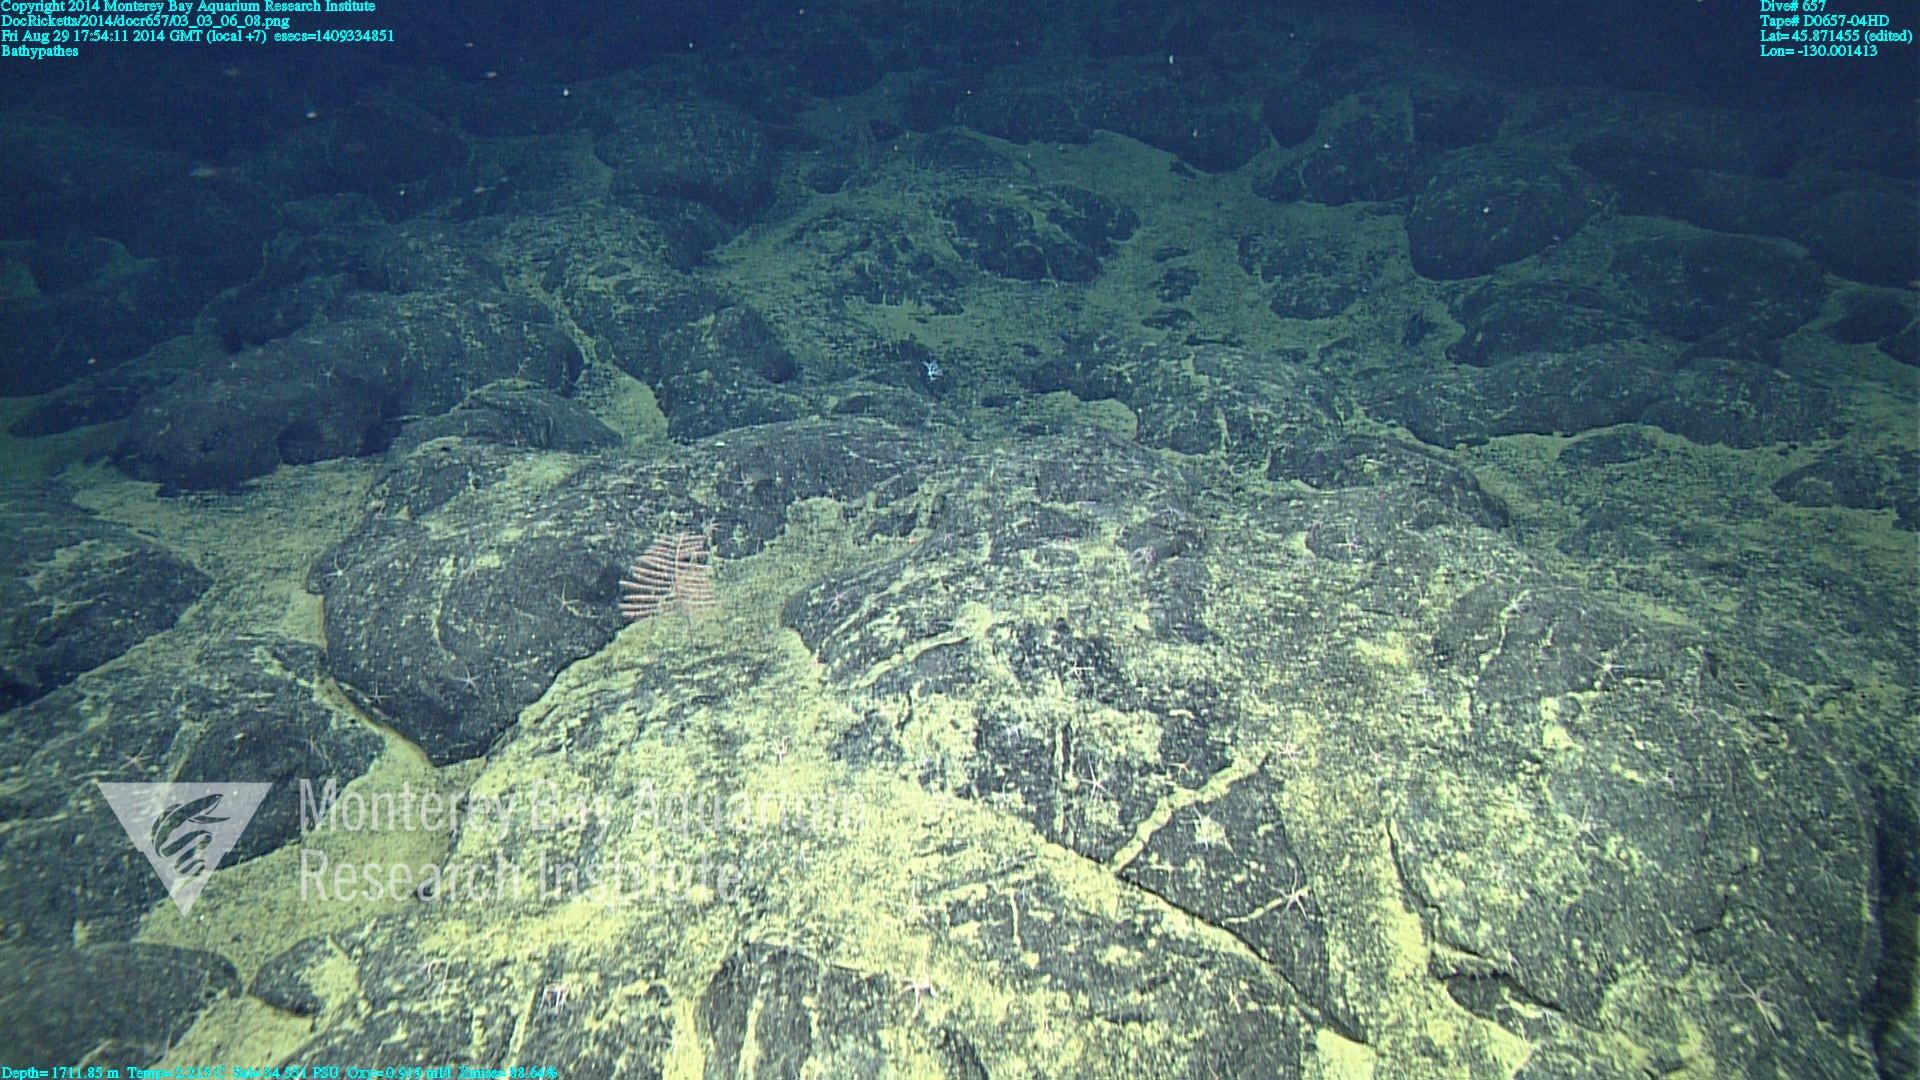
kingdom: Animalia
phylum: Cnidaria
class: Anthozoa
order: Antipatharia
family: Schizopathidae
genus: Bathypathes
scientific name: Bathypathes
